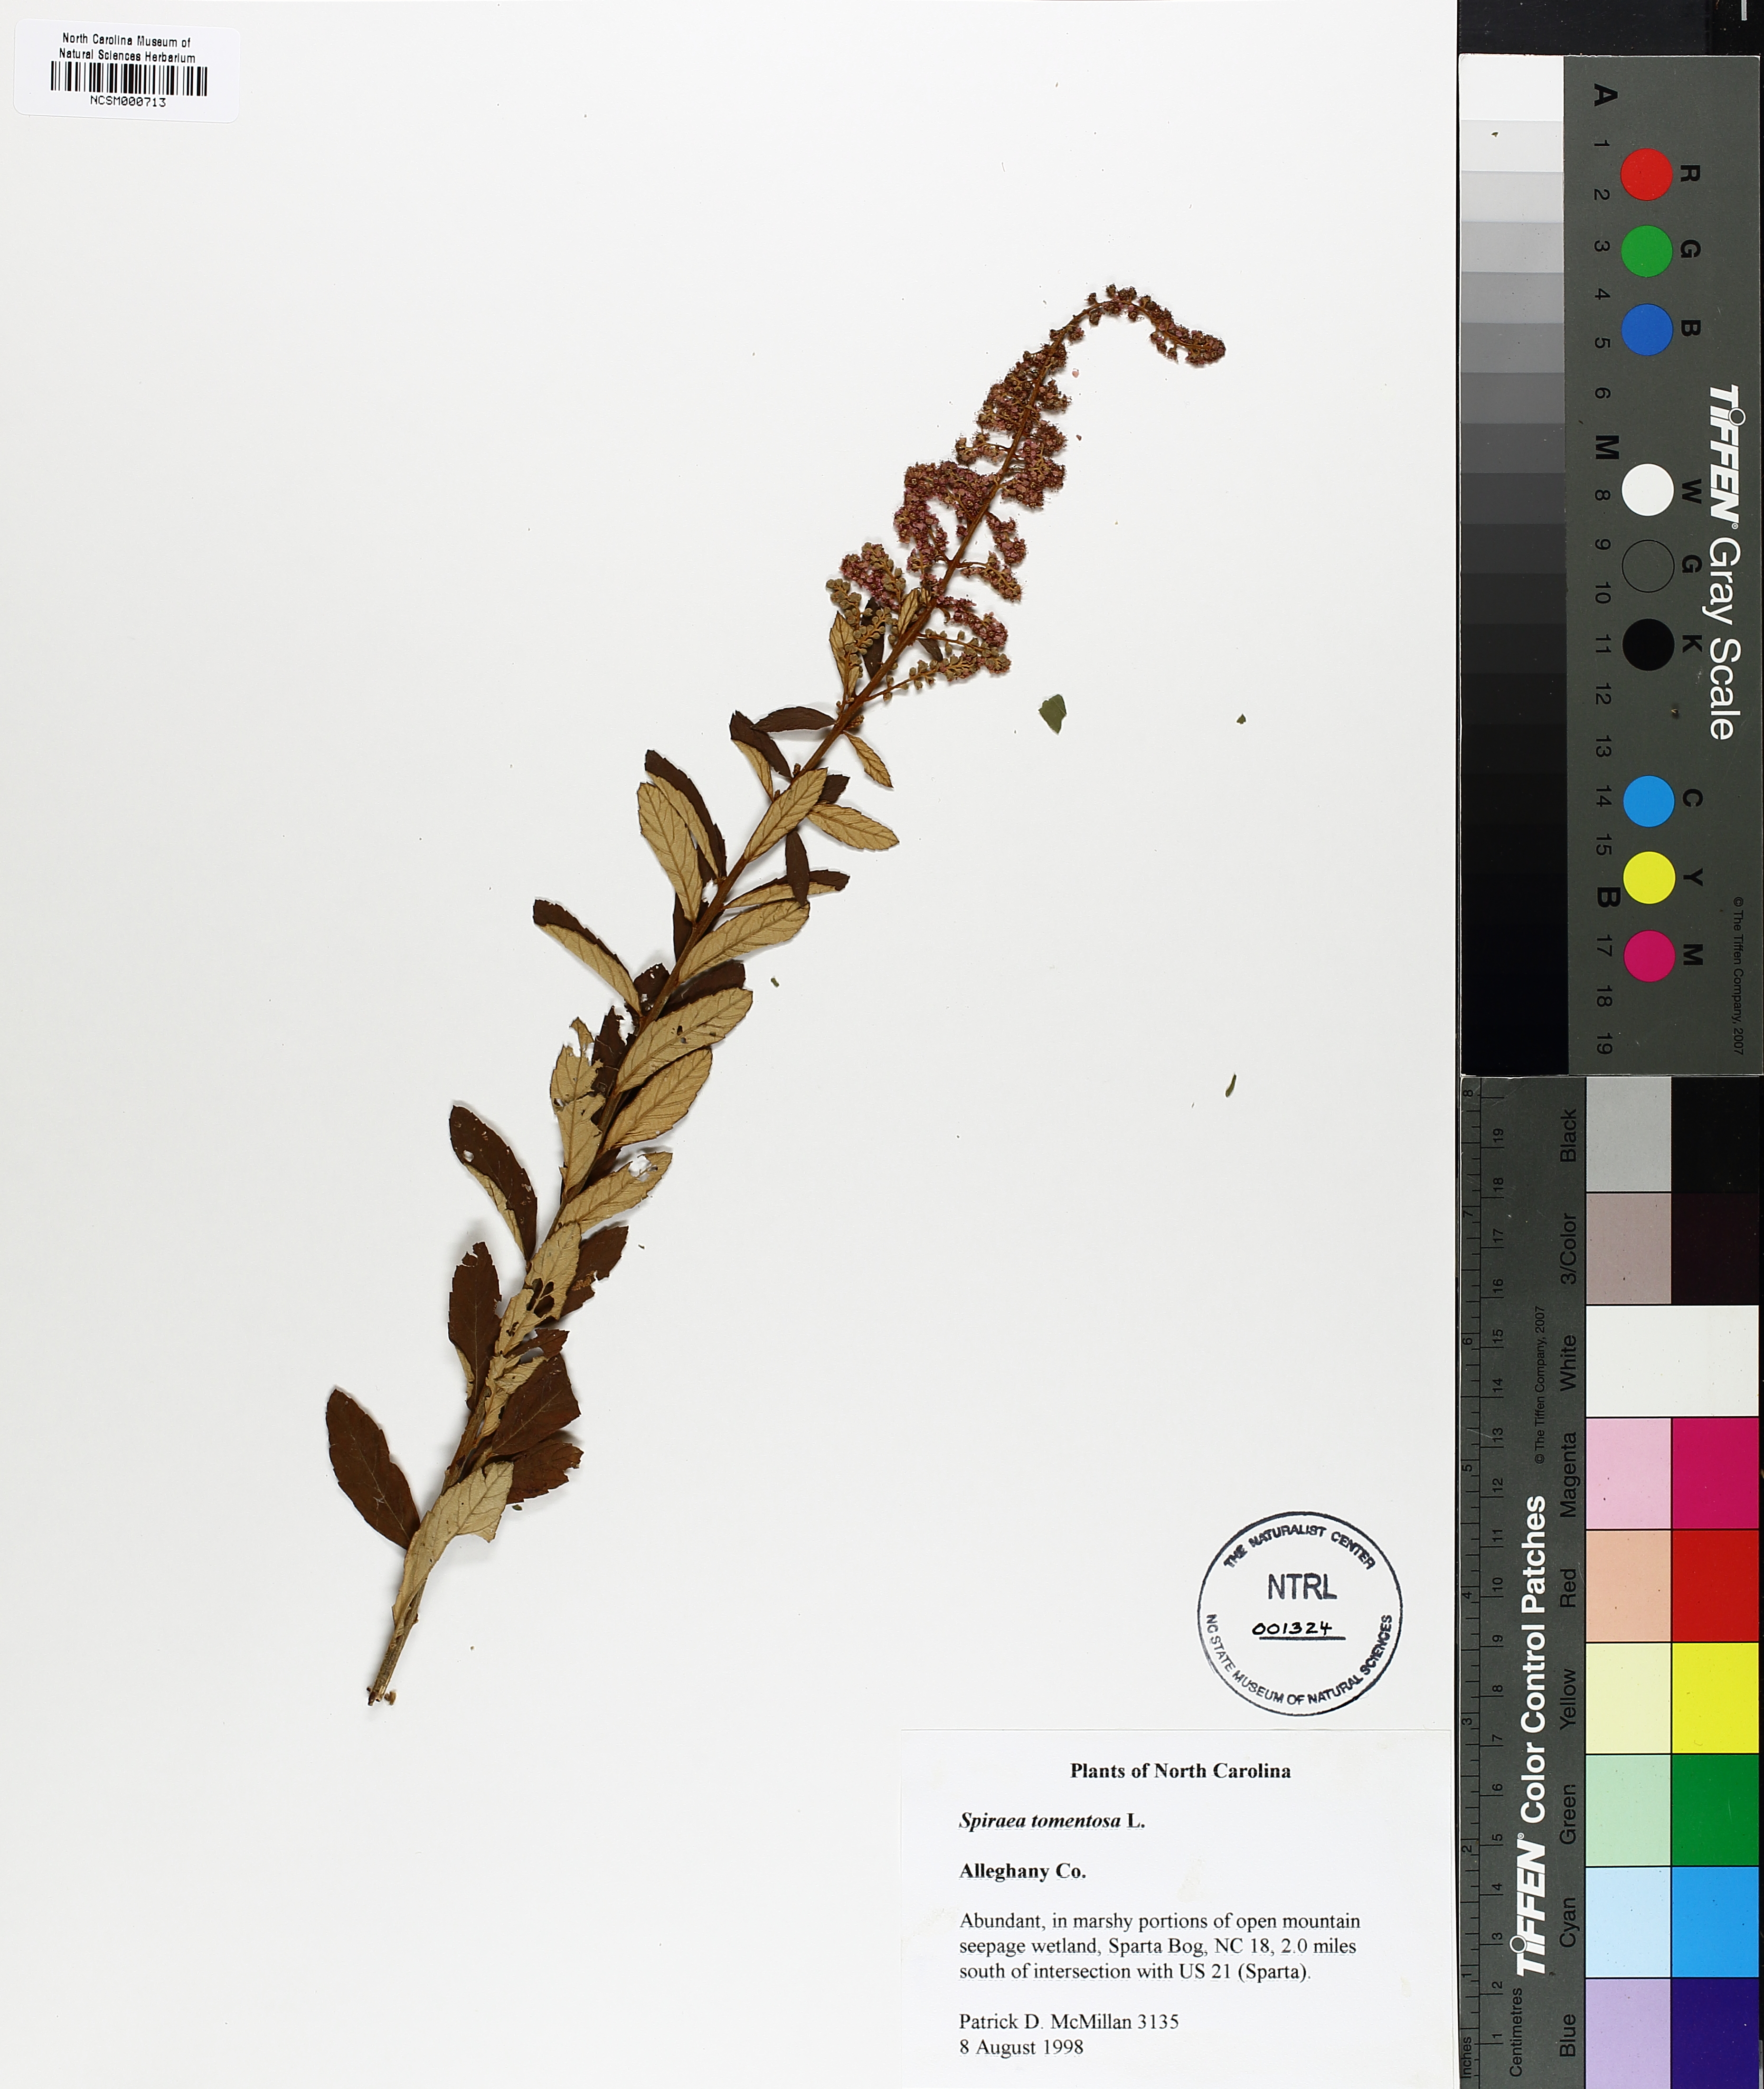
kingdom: Plantae
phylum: Tracheophyta
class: Magnoliopsida
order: Rosales
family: Rosaceae
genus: Spiraea
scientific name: Spiraea tomentosa
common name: Hardhack
